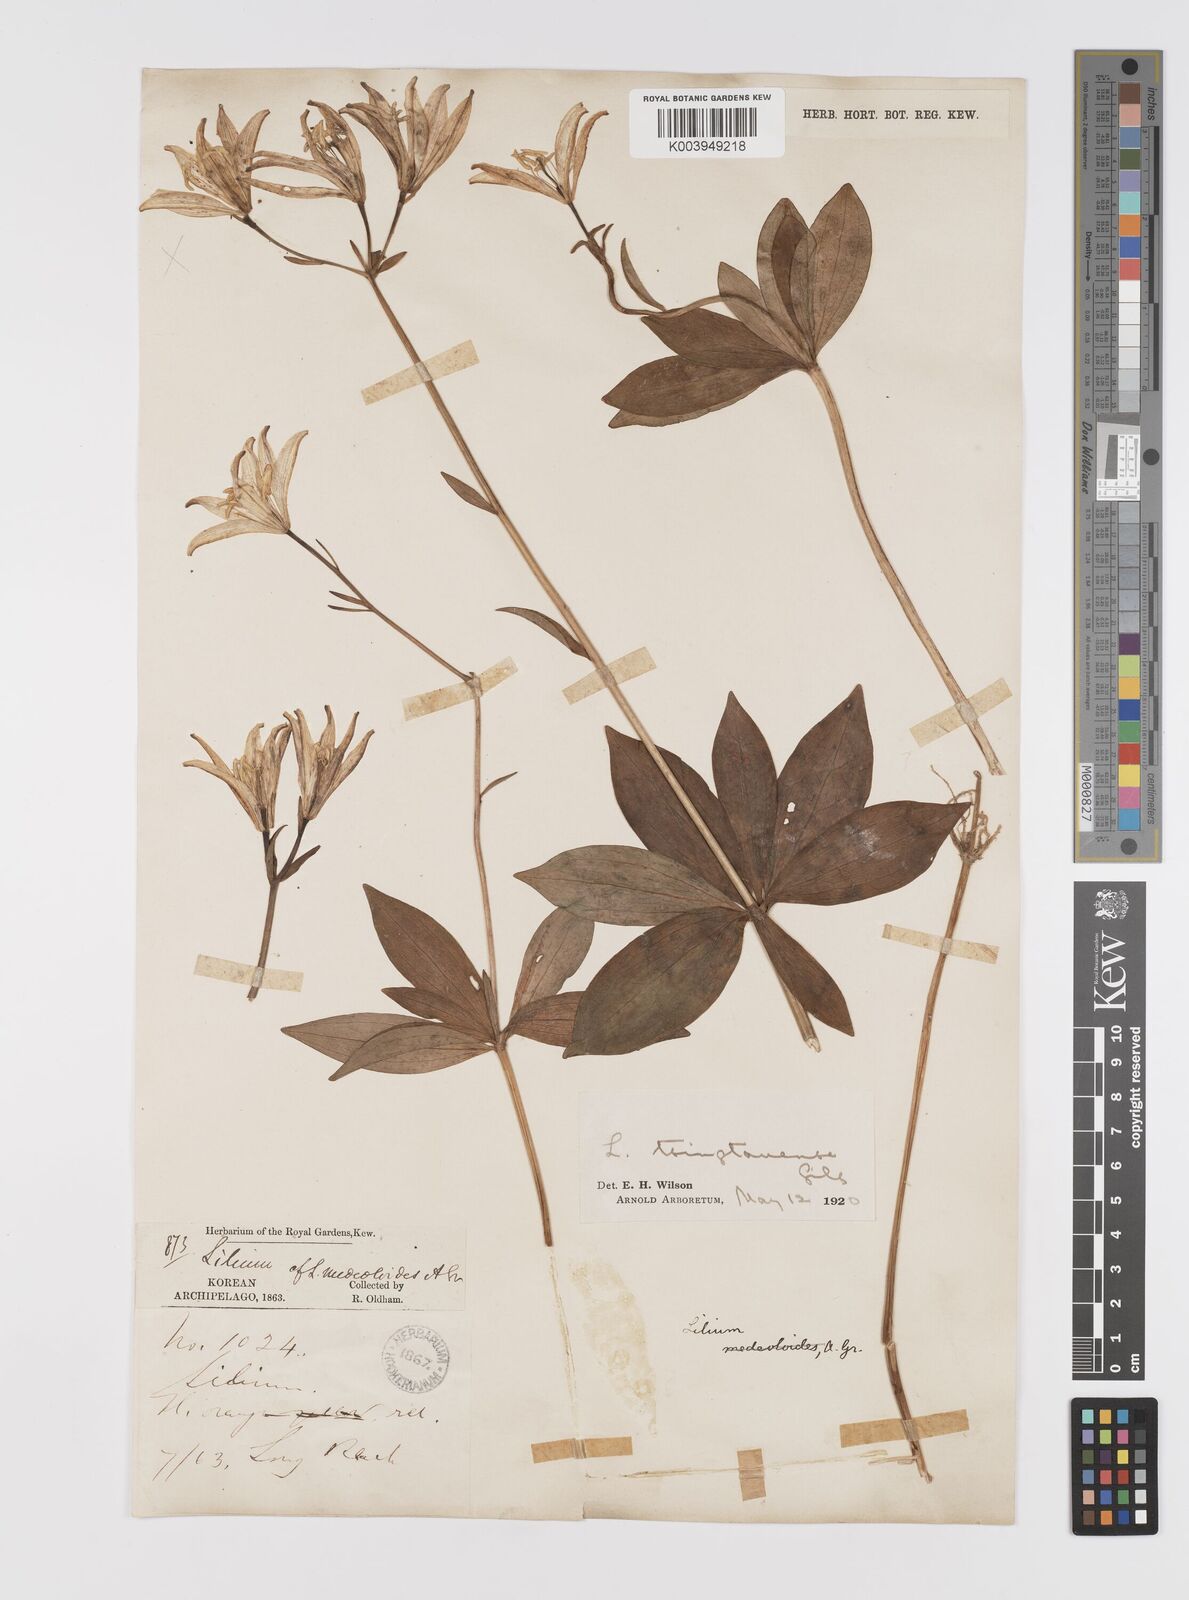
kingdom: Plantae
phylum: Tracheophyta
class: Liliopsida
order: Liliales
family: Liliaceae
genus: Lilium
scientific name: Lilium tsingtauense
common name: Korean wheel lily
